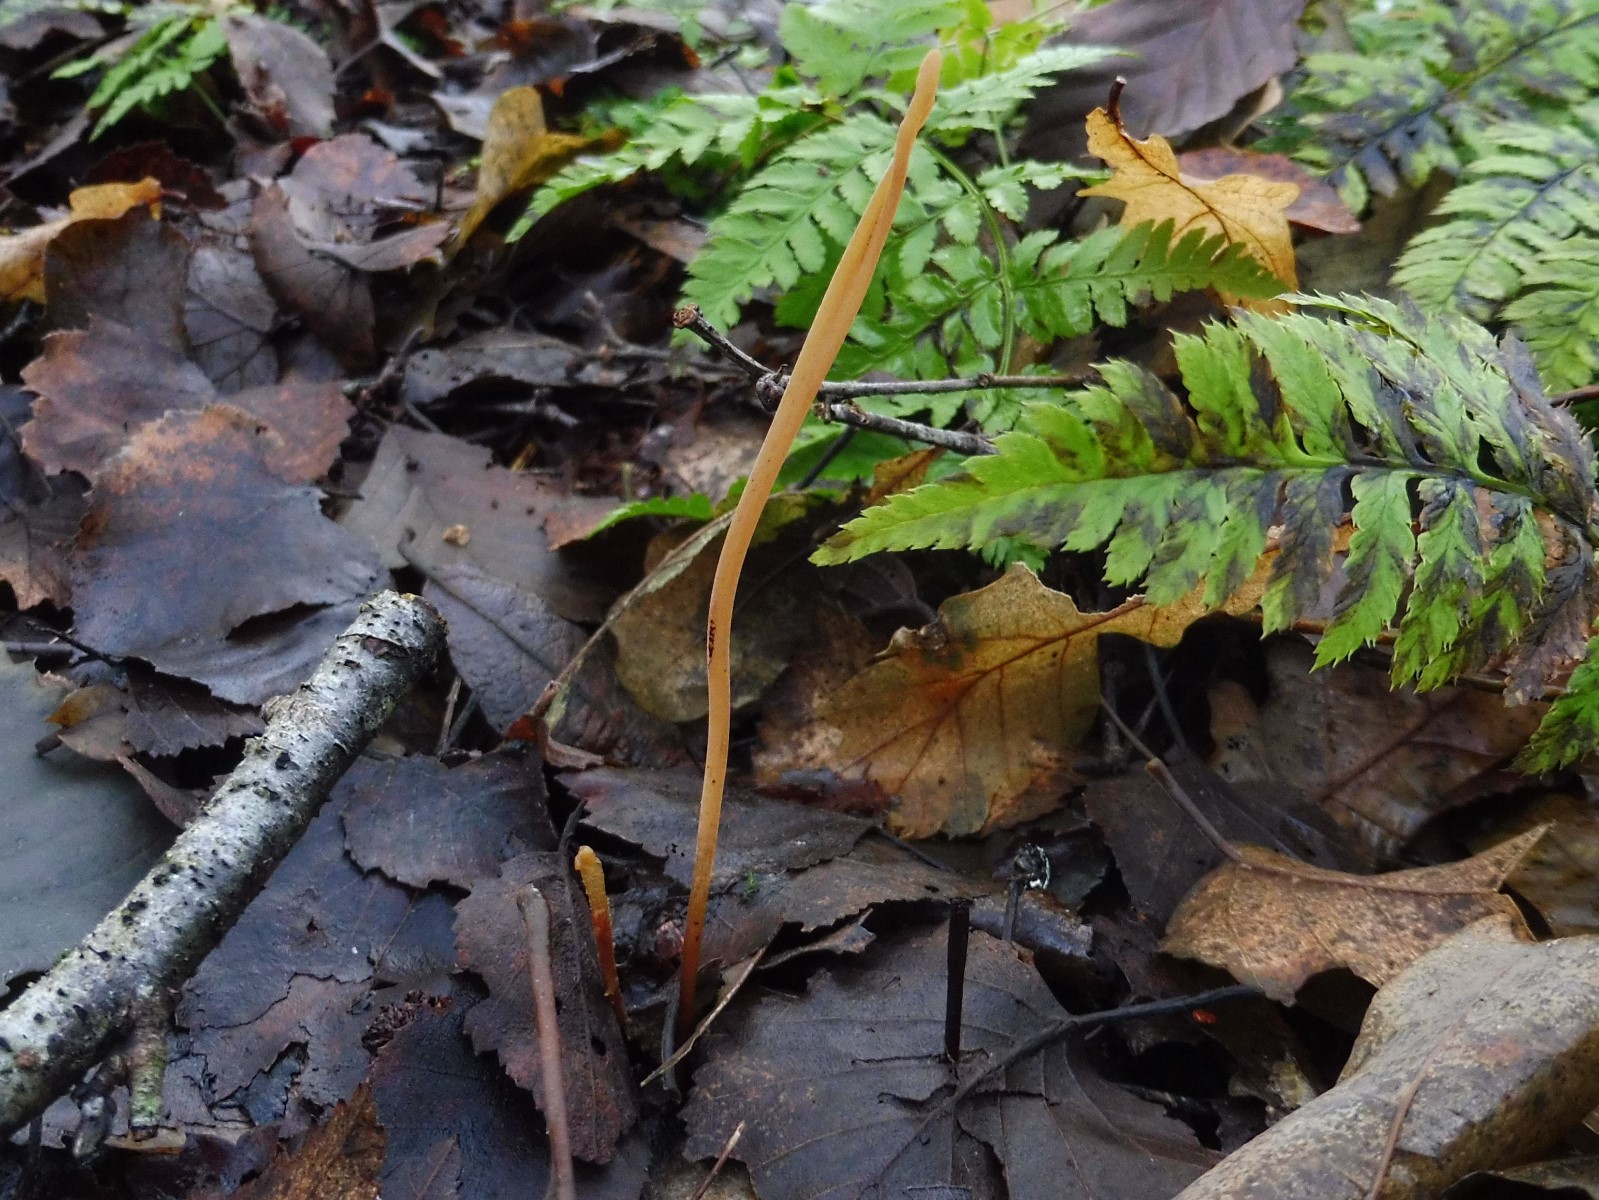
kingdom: Fungi
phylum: Basidiomycota
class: Agaricomycetes
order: Agaricales
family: Typhulaceae
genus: Typhula
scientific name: Typhula fistulosa
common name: pibet rørkølle
